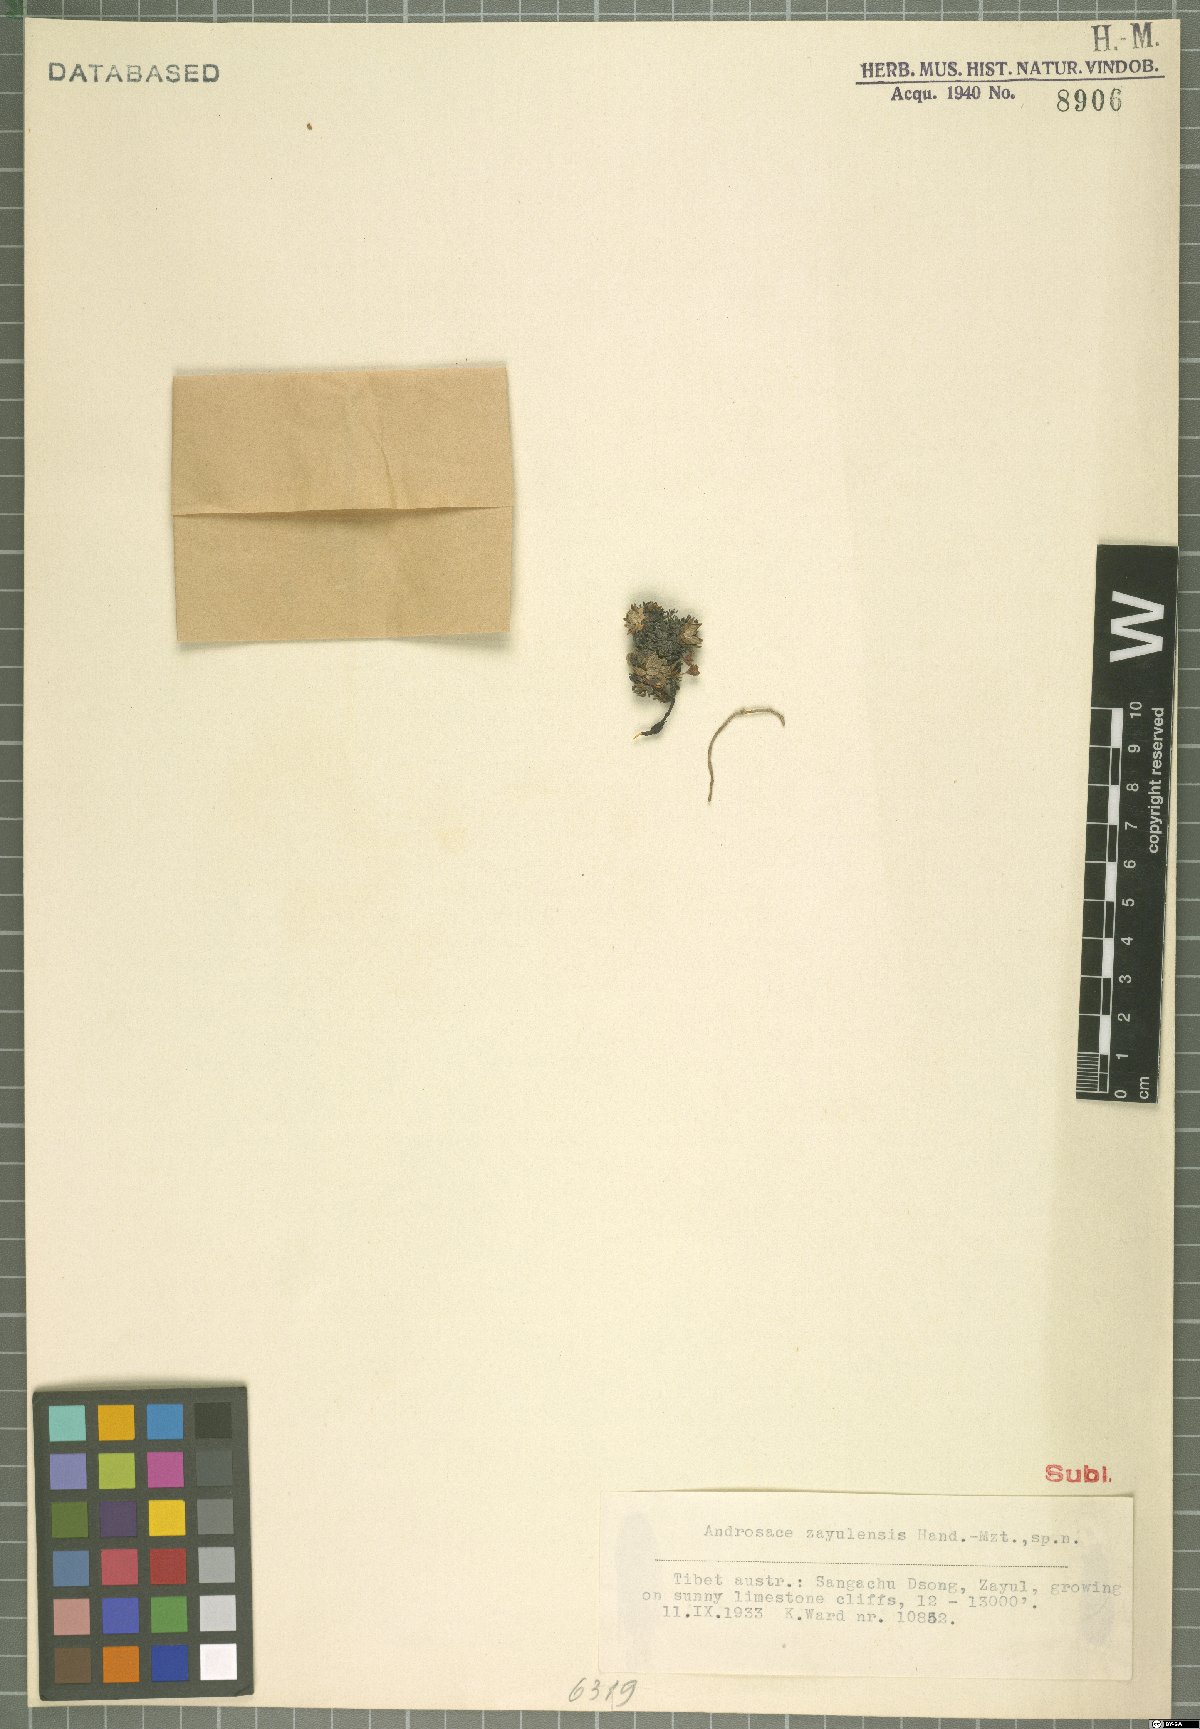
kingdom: Plantae
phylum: Tracheophyta
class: Magnoliopsida
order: Ericales
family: Primulaceae
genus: Androsace
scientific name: Androsace zayulensis
